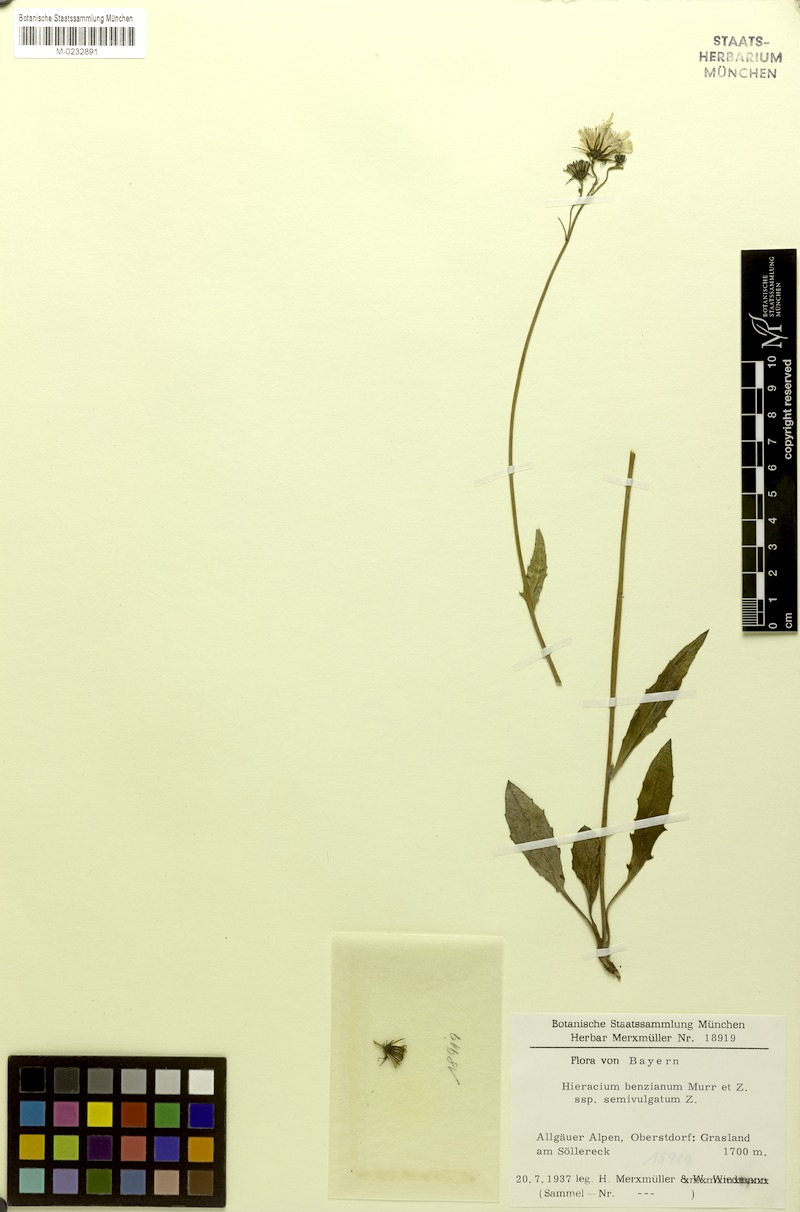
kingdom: Plantae
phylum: Tracheophyta
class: Magnoliopsida
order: Asterales
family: Asteraceae
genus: Hieracium
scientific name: Hieracium benzianum
